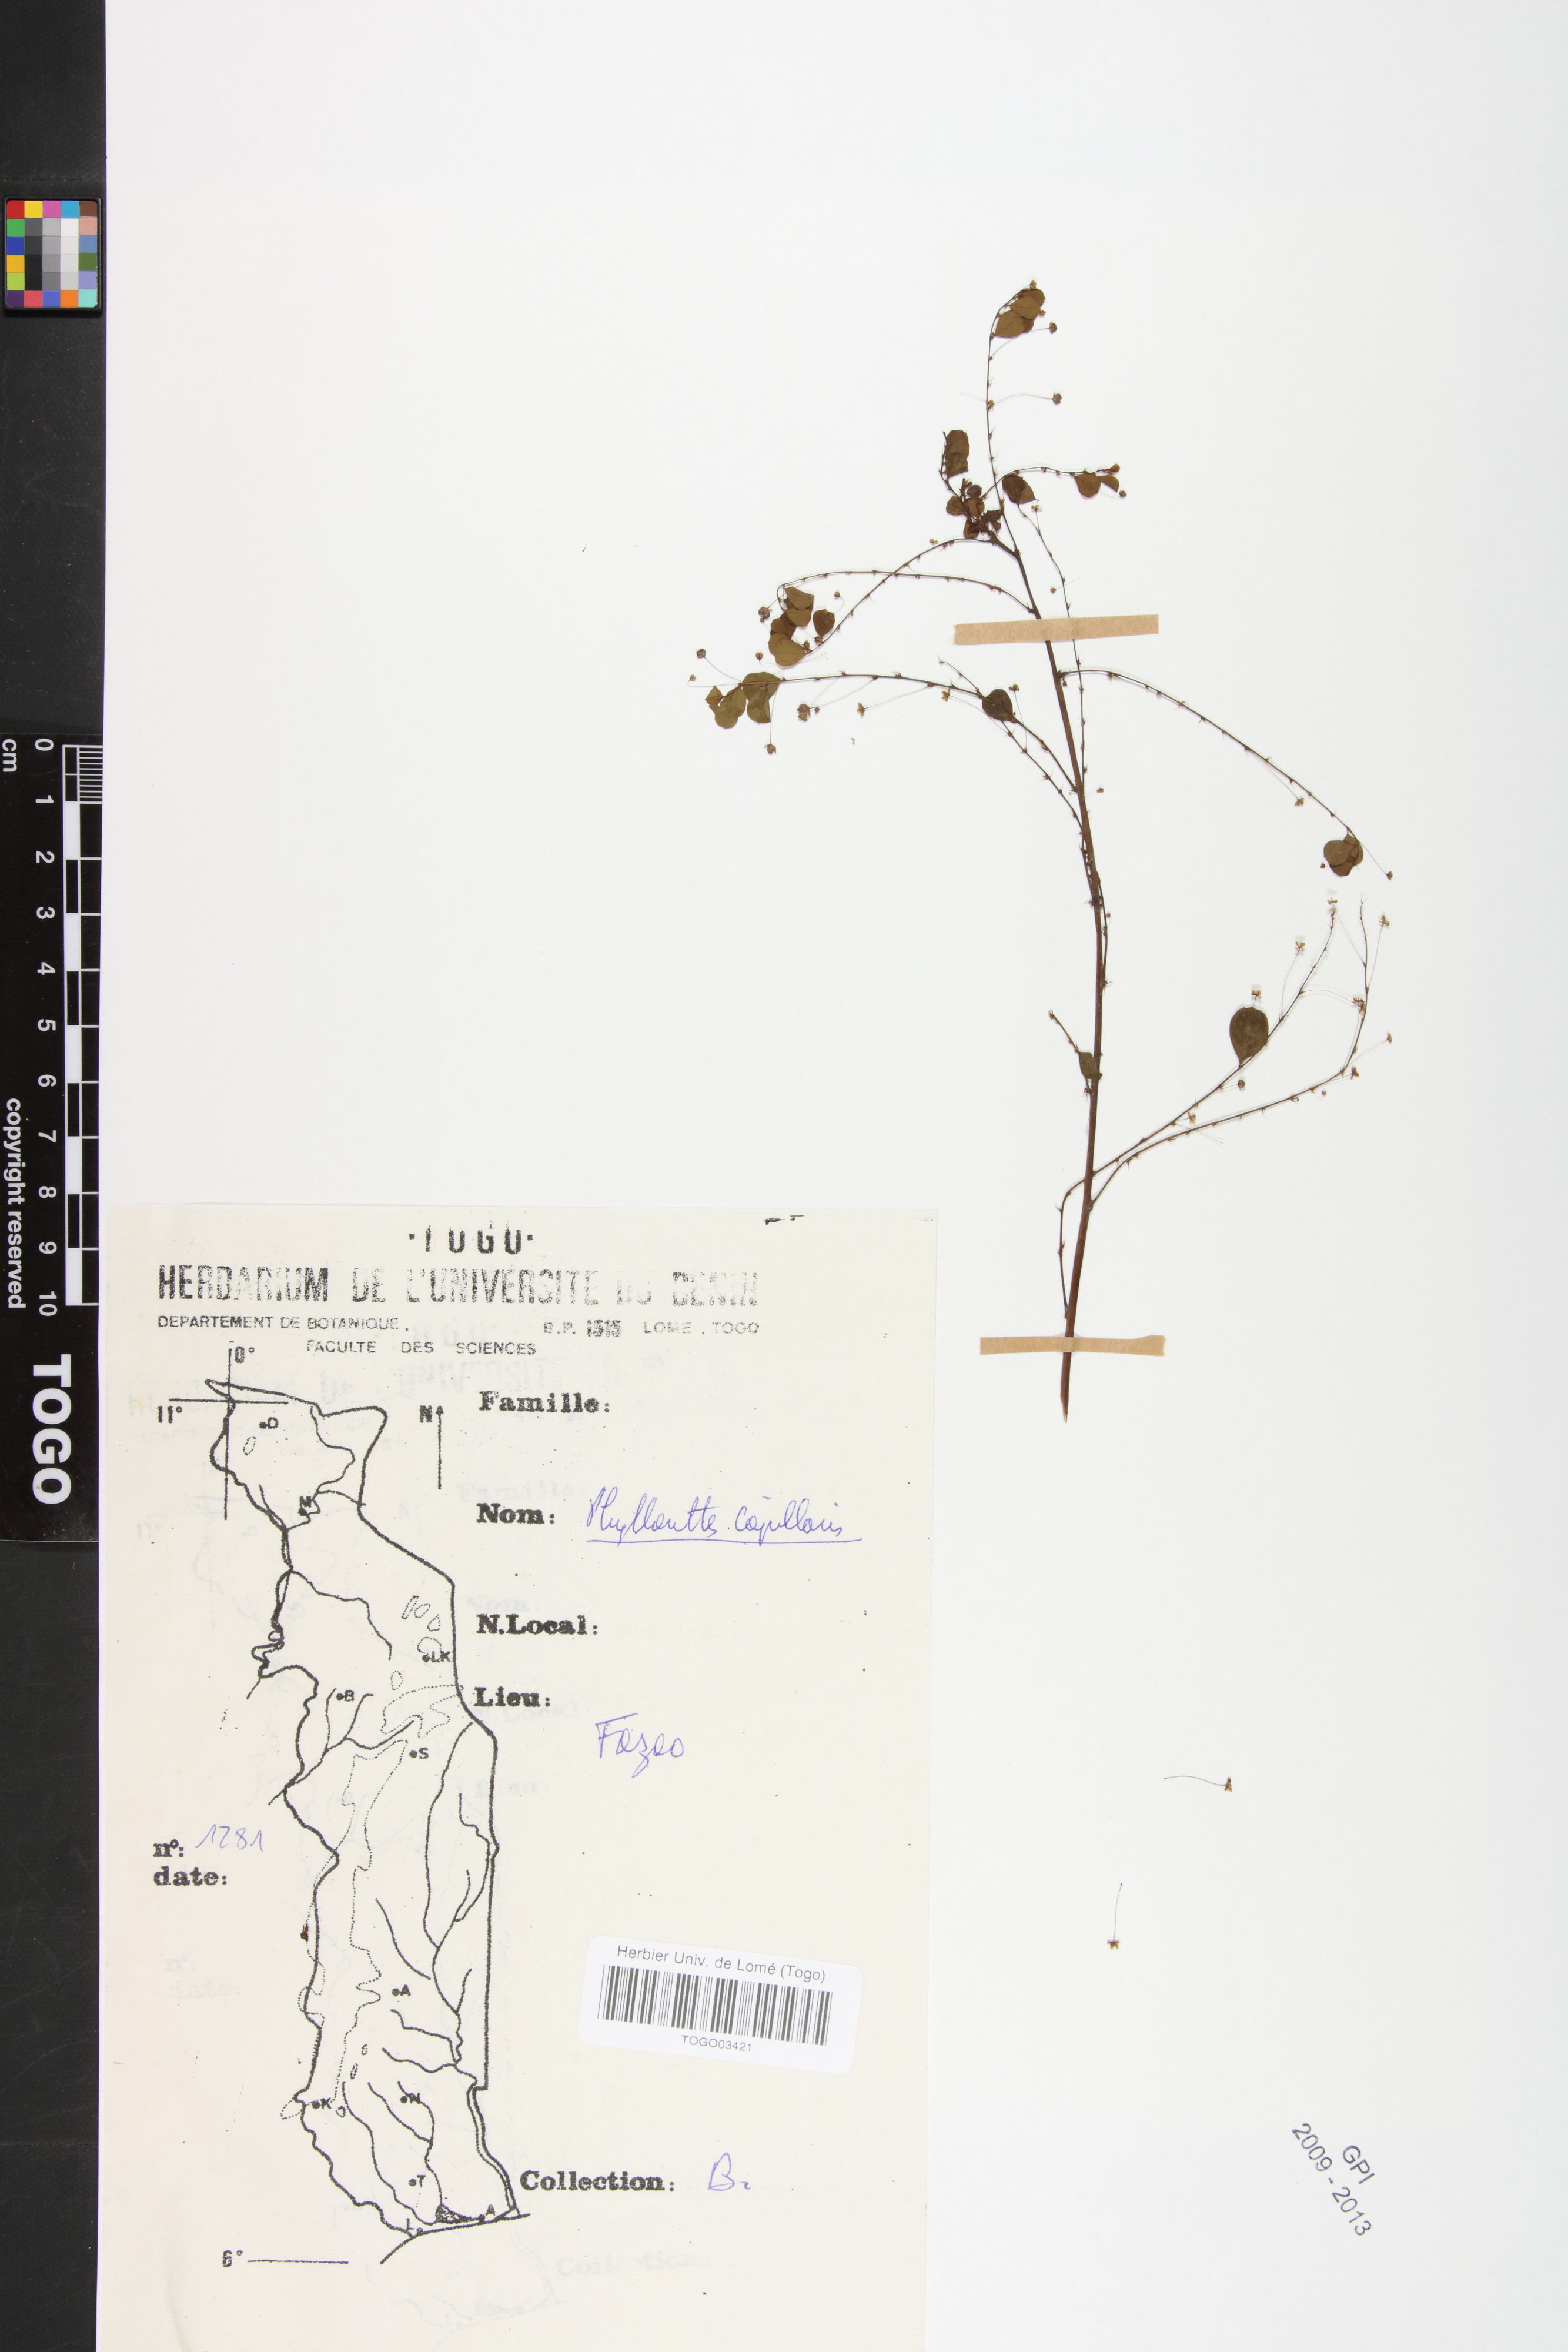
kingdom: Plantae
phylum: Tracheophyta
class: Magnoliopsida
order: Malpighiales
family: Phyllanthaceae
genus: Phyllanthus
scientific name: Phyllanthus nummulariifolius
